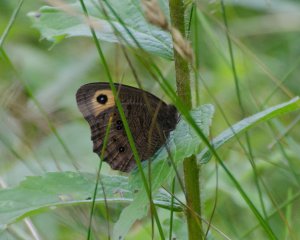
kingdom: Animalia
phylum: Arthropoda
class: Insecta
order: Lepidoptera
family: Nymphalidae
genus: Cercyonis
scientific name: Cercyonis pegala
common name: Common Wood-Nymph
